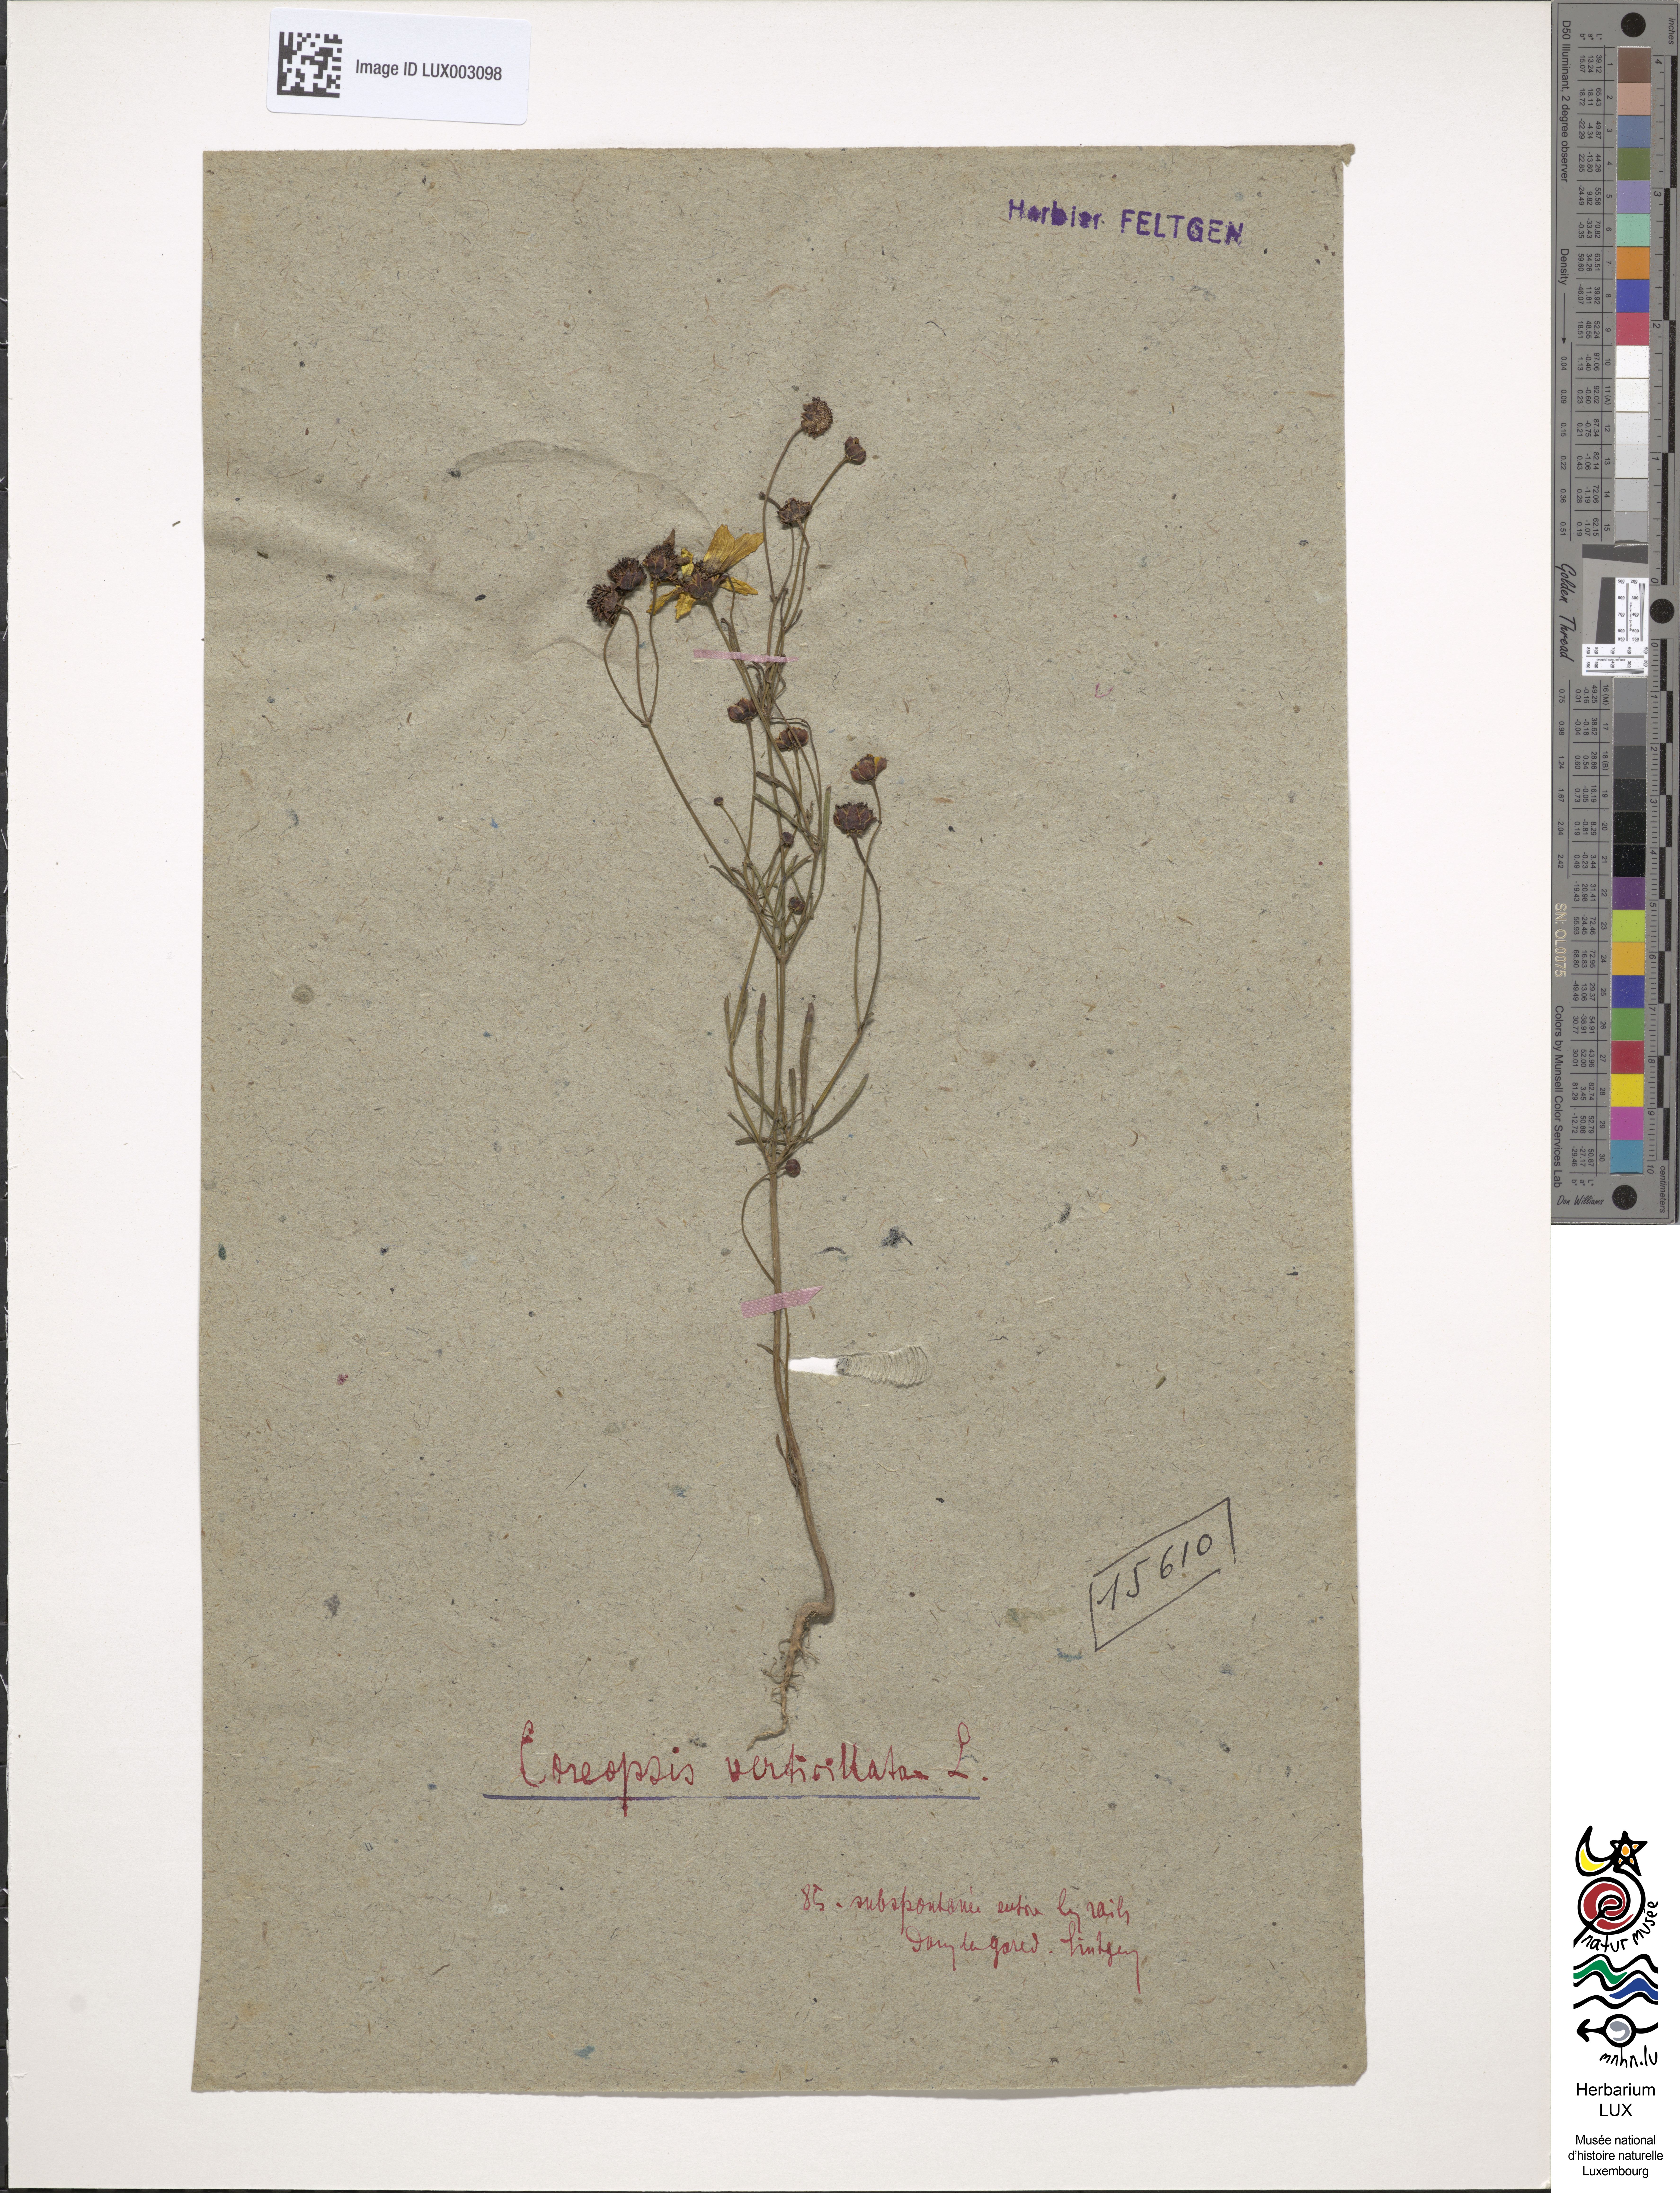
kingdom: Plantae
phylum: Tracheophyta
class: Magnoliopsida
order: Asterales
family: Asteraceae
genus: Coreopsis
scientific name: Coreopsis verticillata
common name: Whorled tickseed
